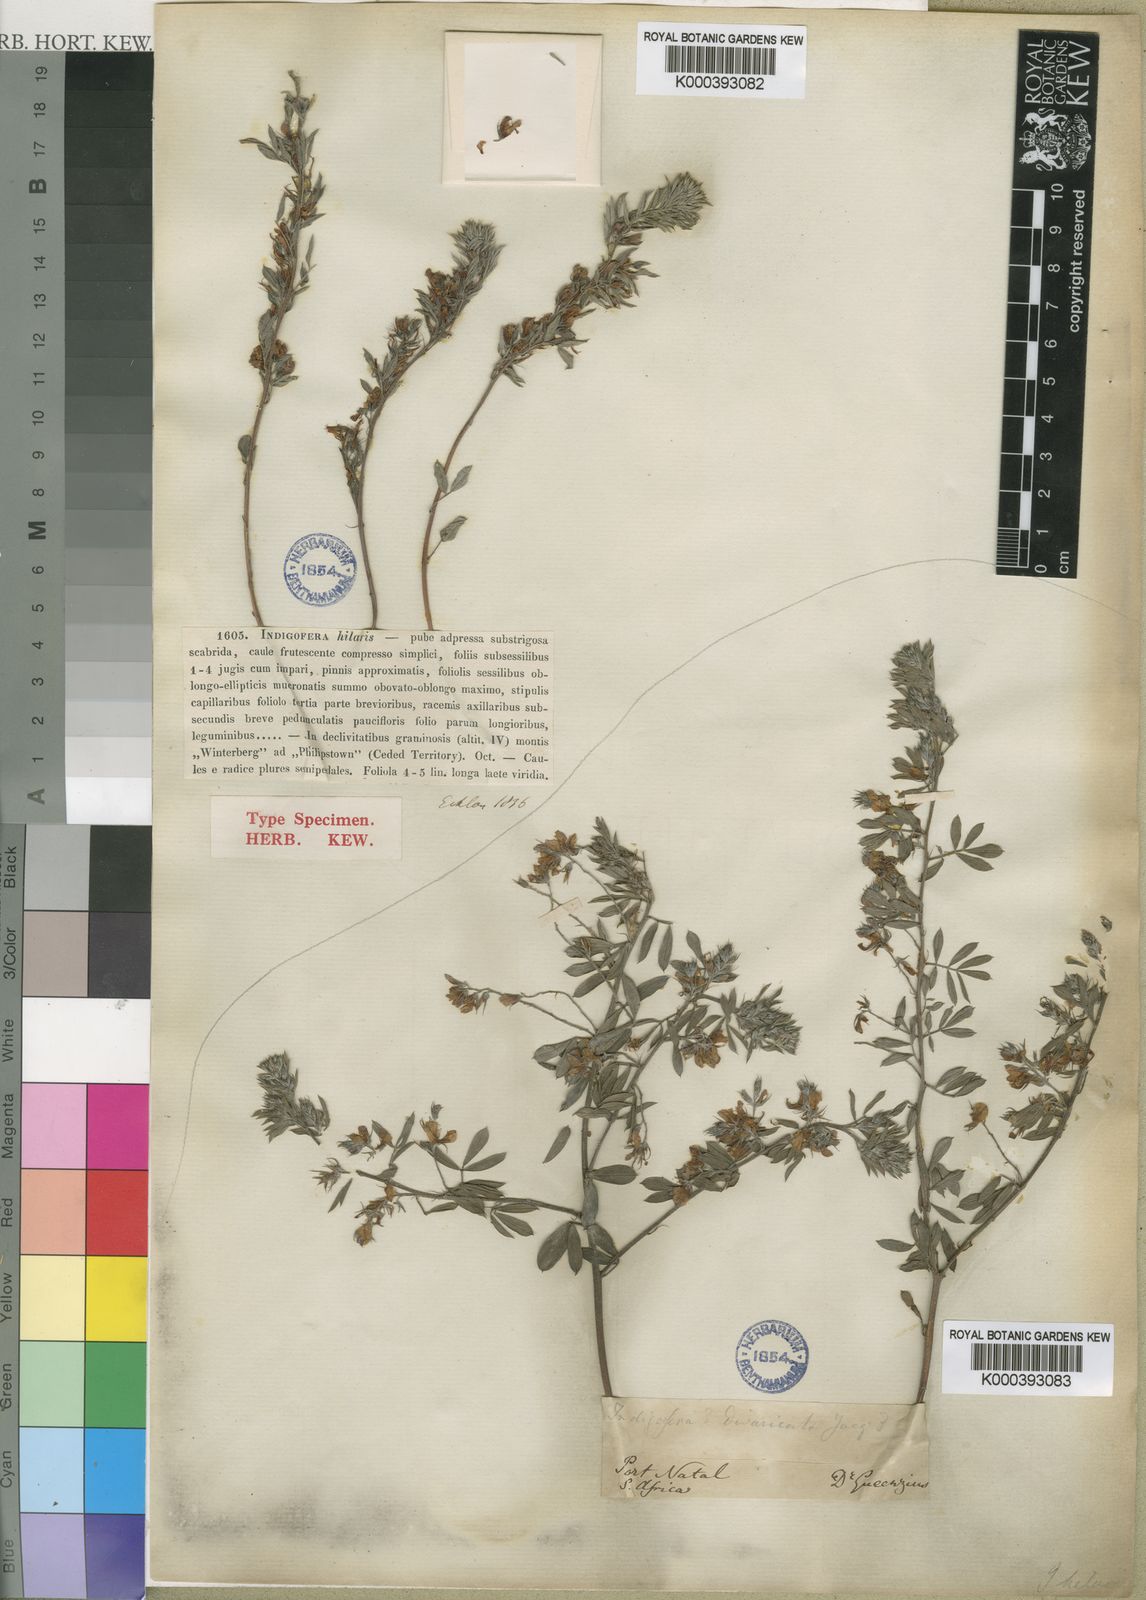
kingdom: Plantae
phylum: Tracheophyta
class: Magnoliopsida
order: Fabales
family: Fabaceae
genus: Indigofera
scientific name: Indigofera hilaris
